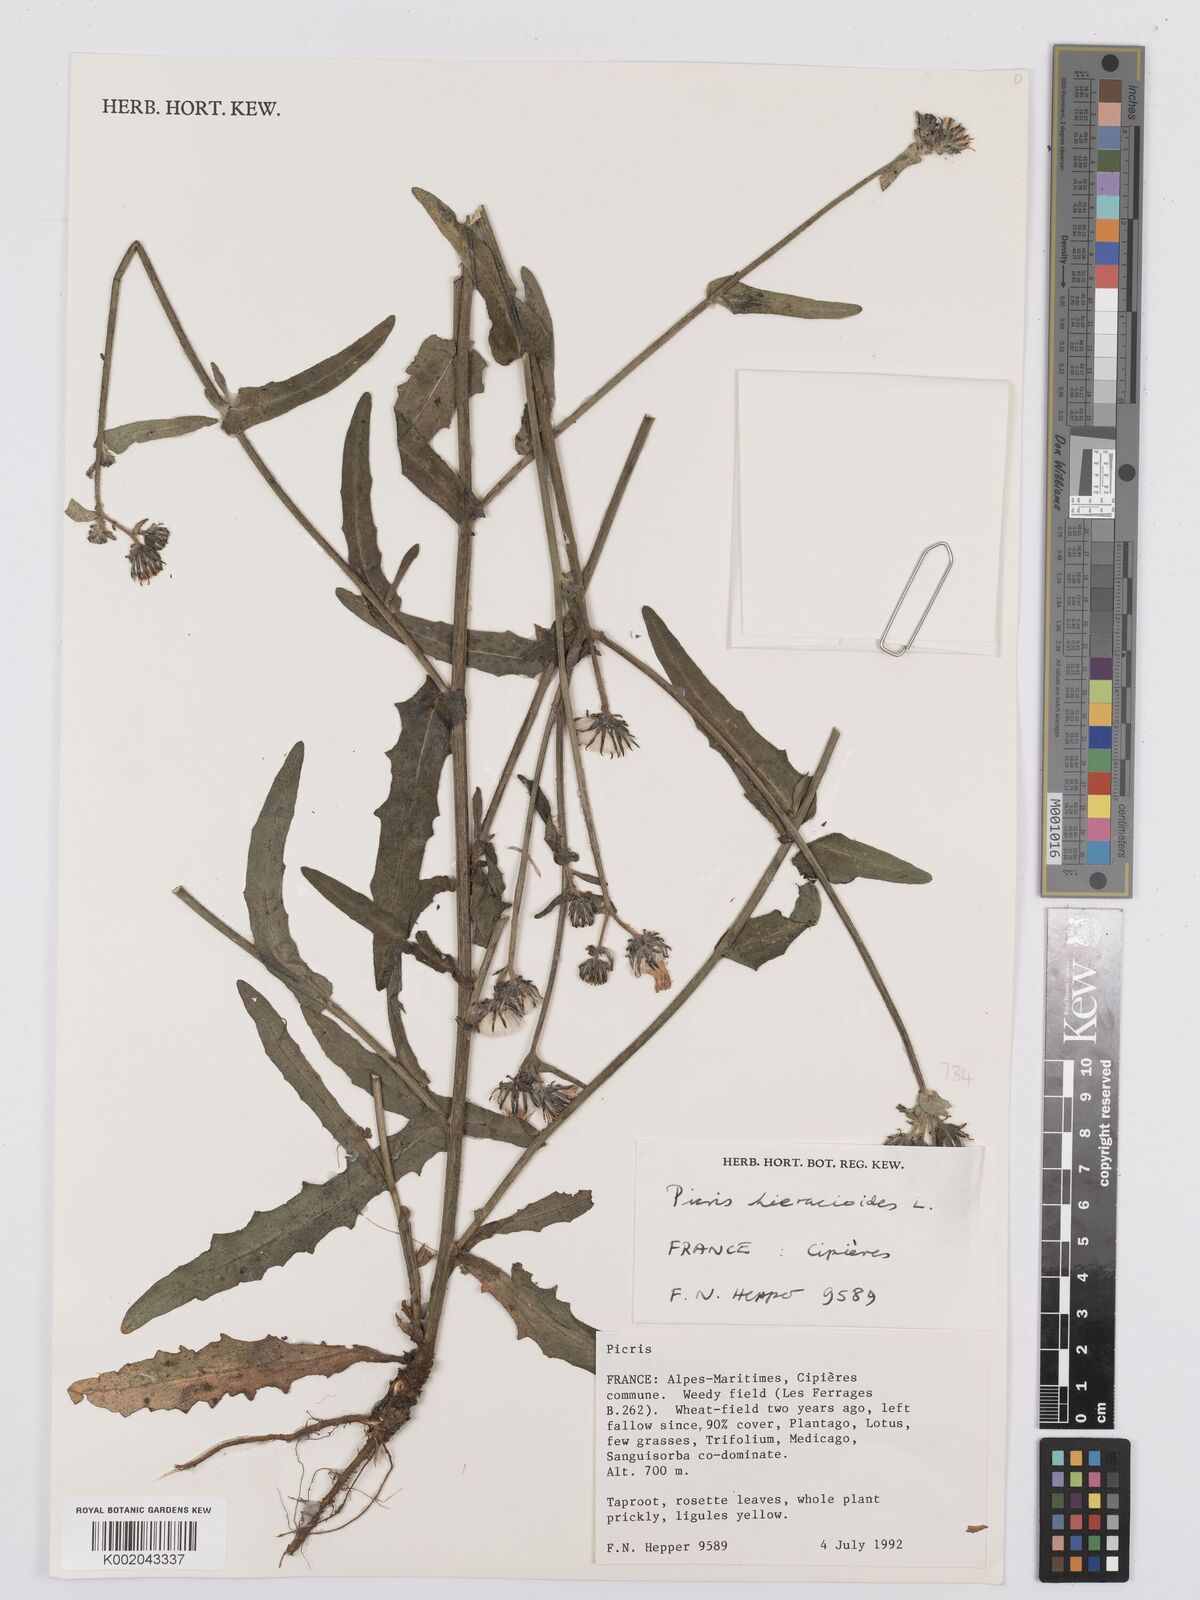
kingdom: Plantae
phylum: Tracheophyta
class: Magnoliopsida
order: Asterales
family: Asteraceae
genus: Picris
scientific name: Picris hieracioides
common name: Hawkweed oxtongue
